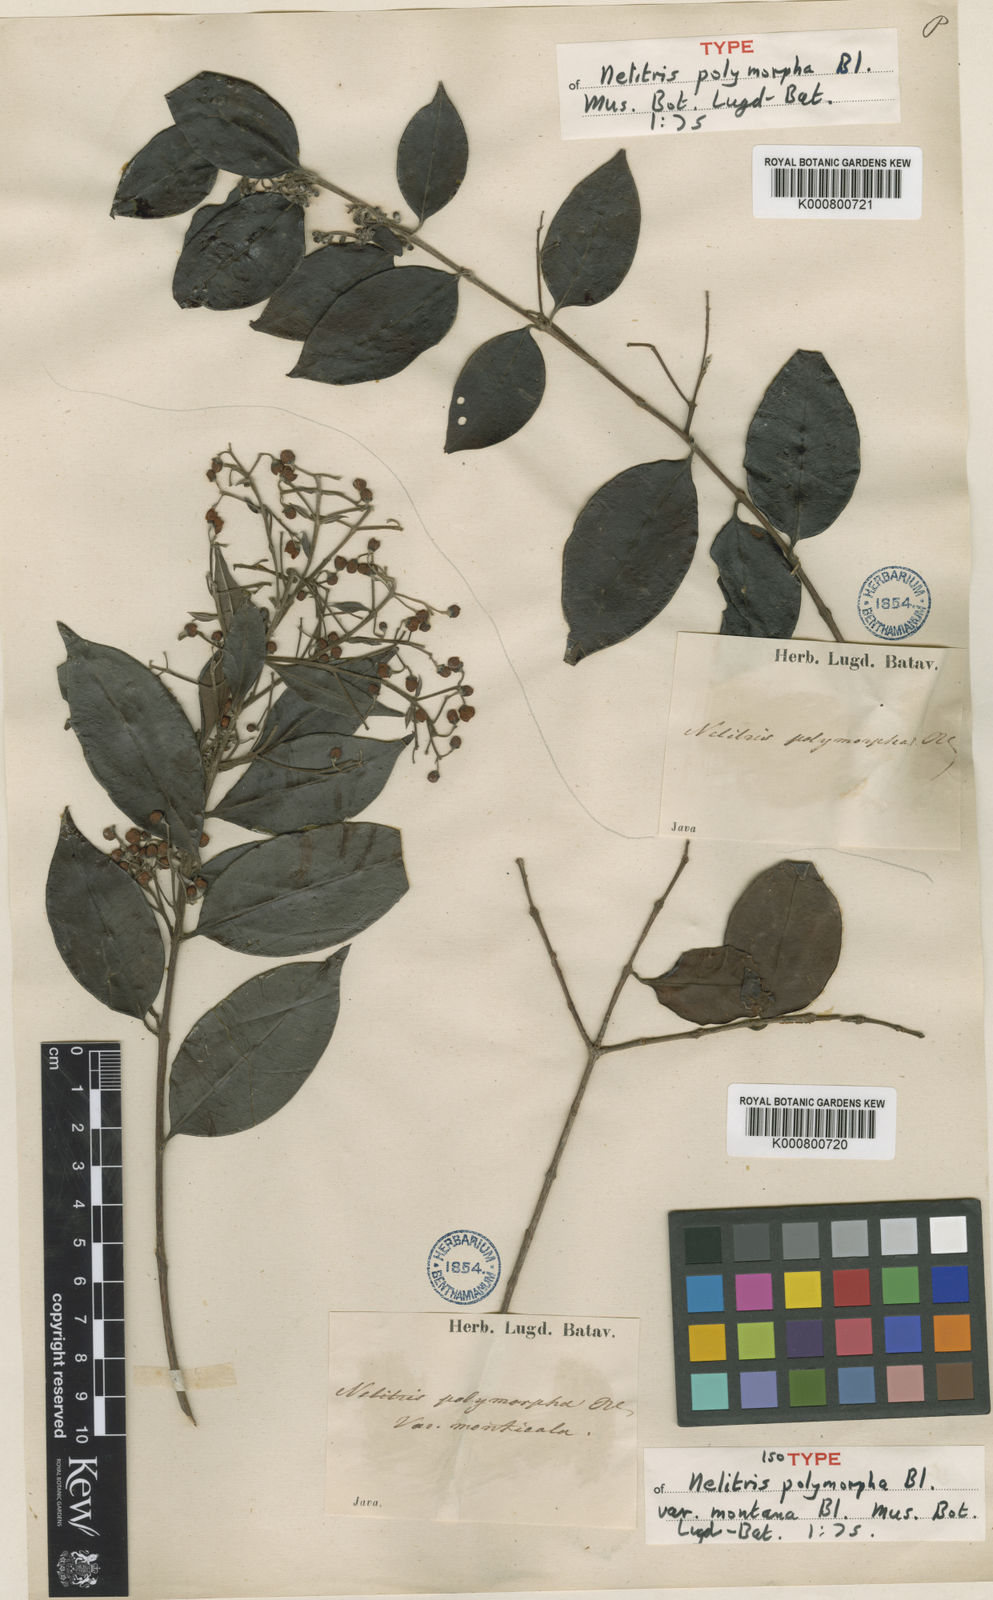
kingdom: Plantae
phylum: Tracheophyta
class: Magnoliopsida
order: Myrtales
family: Myrtaceae
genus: Decaspermum
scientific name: Decaspermum parviflorum
